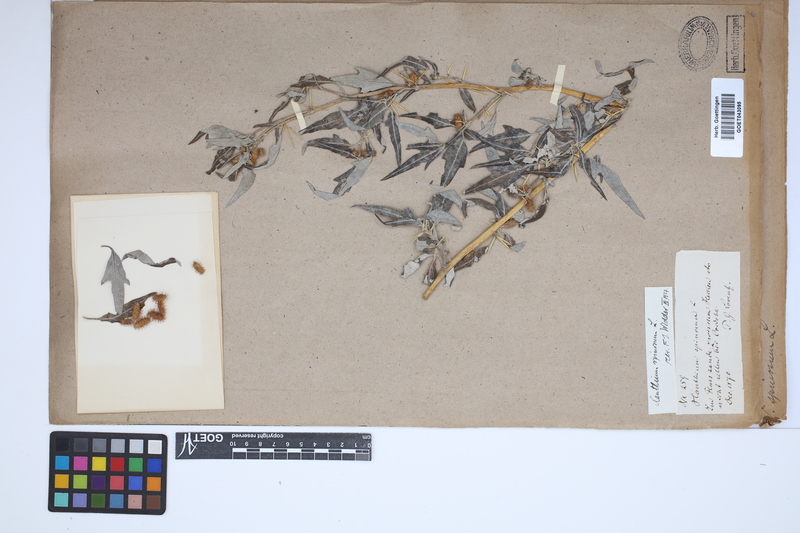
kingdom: Plantae
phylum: Tracheophyta
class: Magnoliopsida
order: Asterales
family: Asteraceae
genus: Xanthium
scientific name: Xanthium spinosum
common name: Spiny cocklebur
